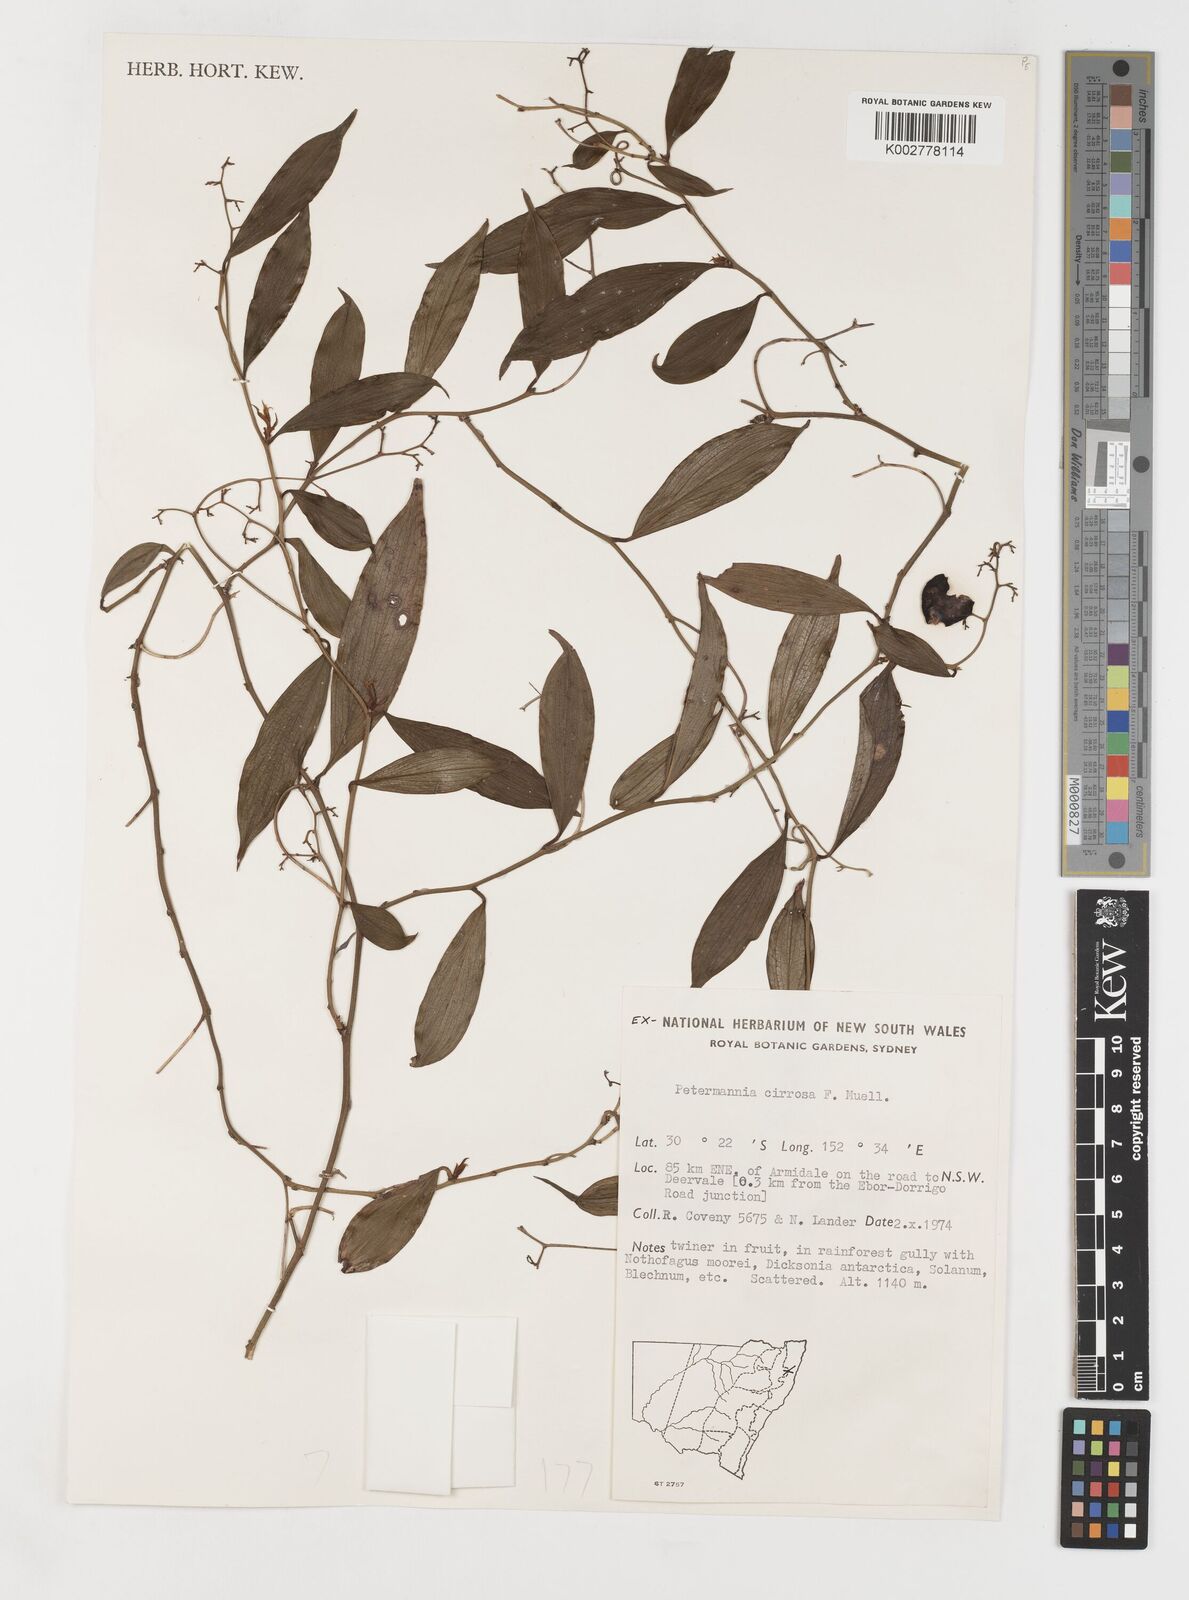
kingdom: Plantae
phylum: Tracheophyta
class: Liliopsida
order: Liliales
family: Petermanniaceae
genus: Petermannia
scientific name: Petermannia cirrosa
